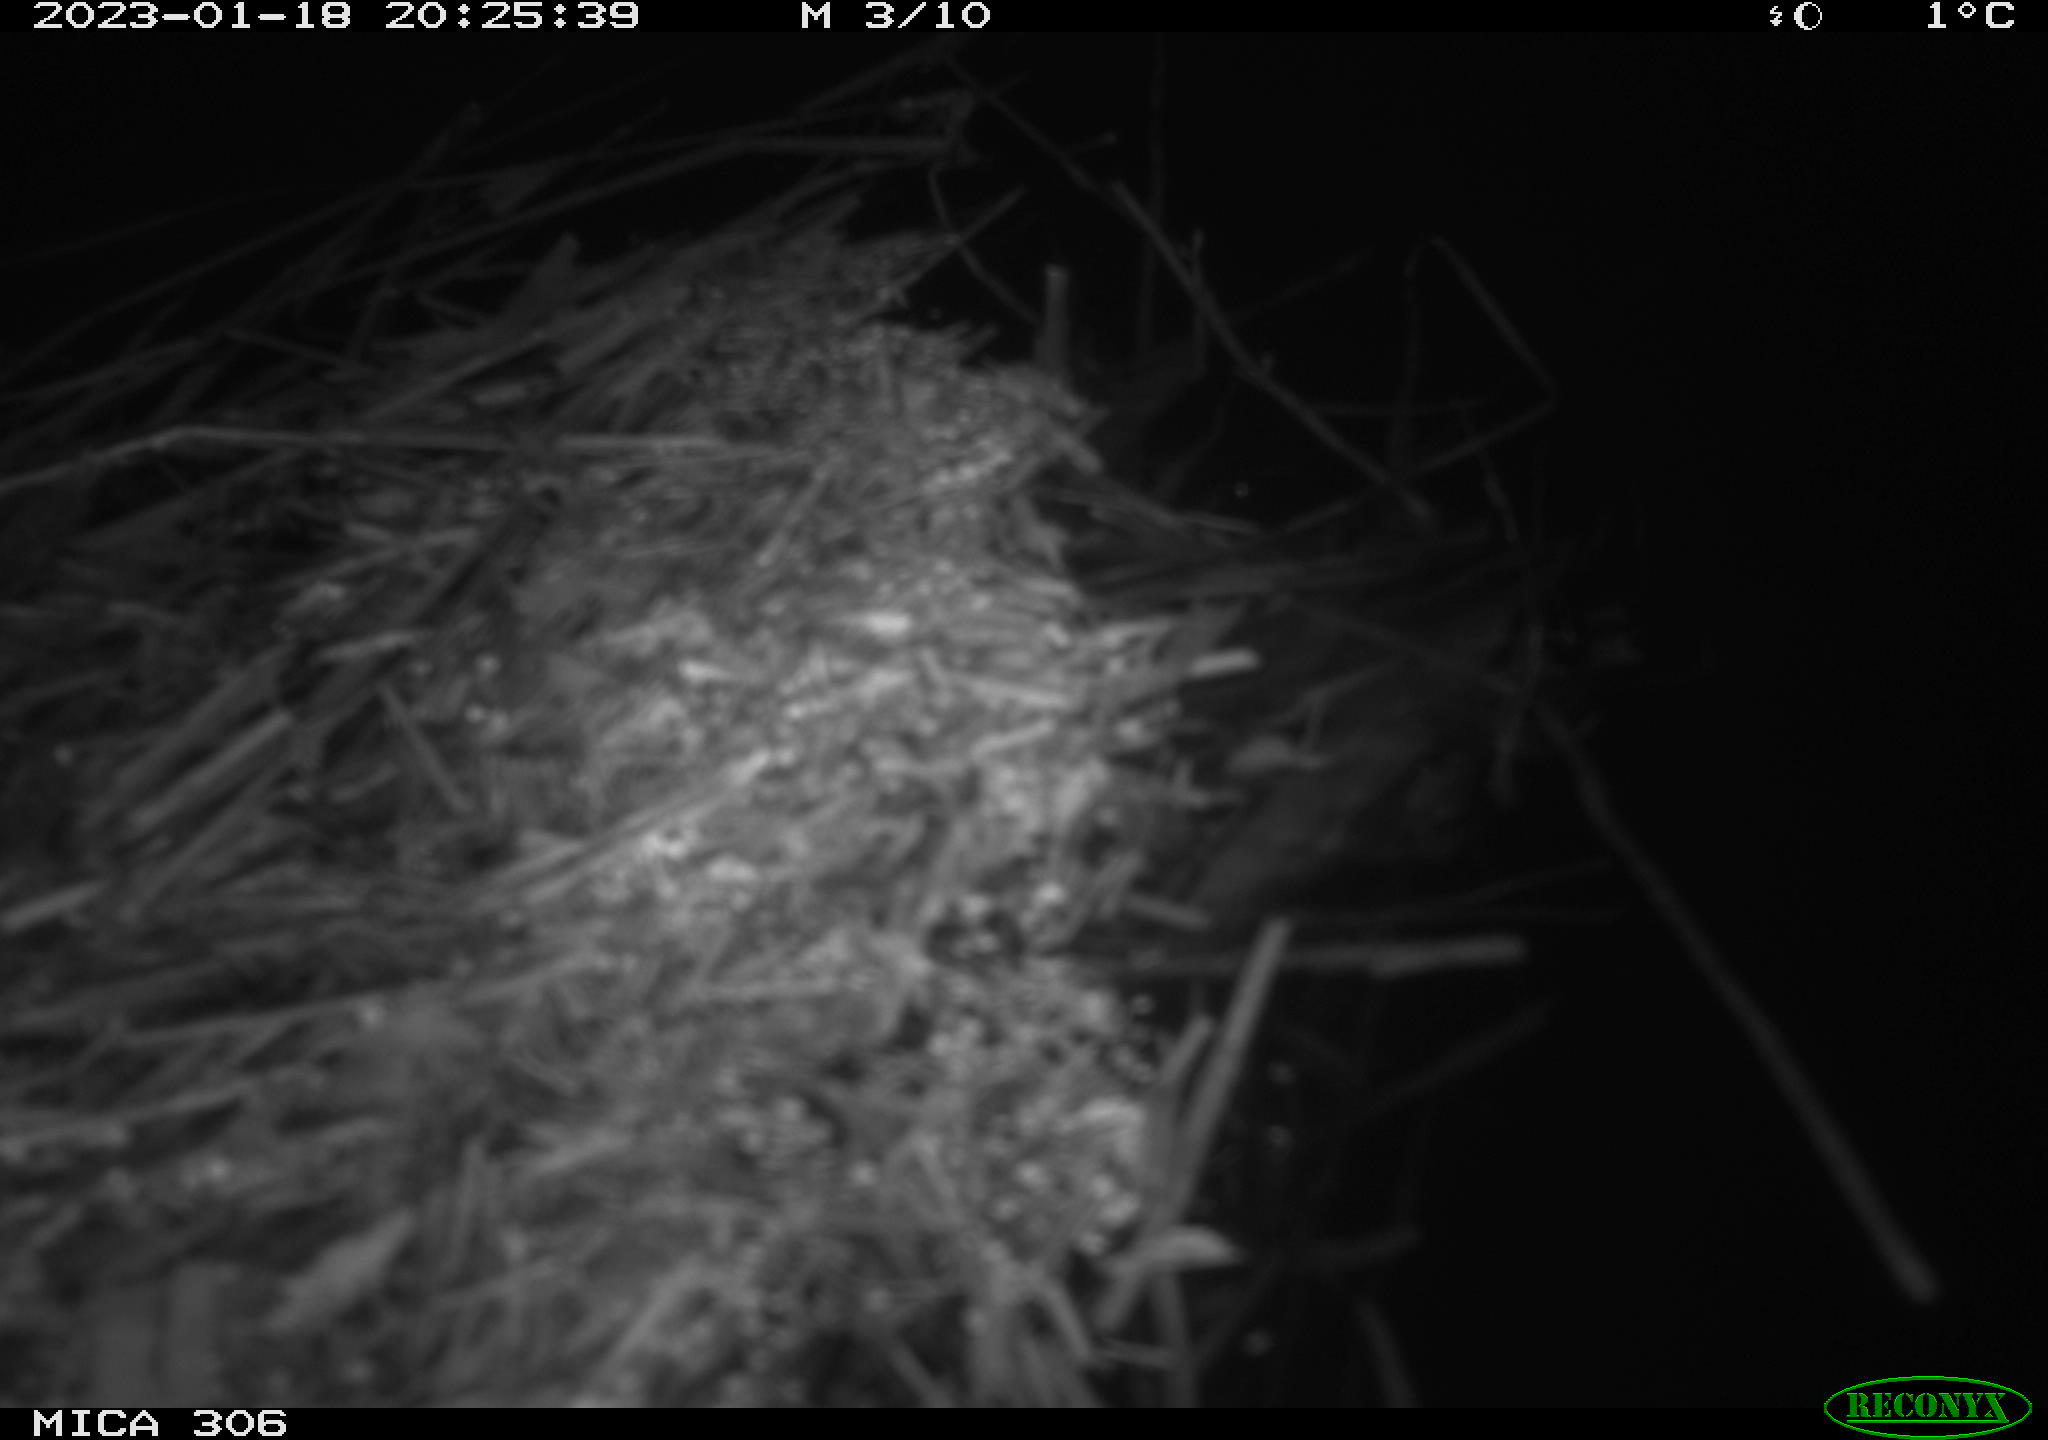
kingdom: Animalia
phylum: Chordata
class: Mammalia
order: Rodentia
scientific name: Rodentia
